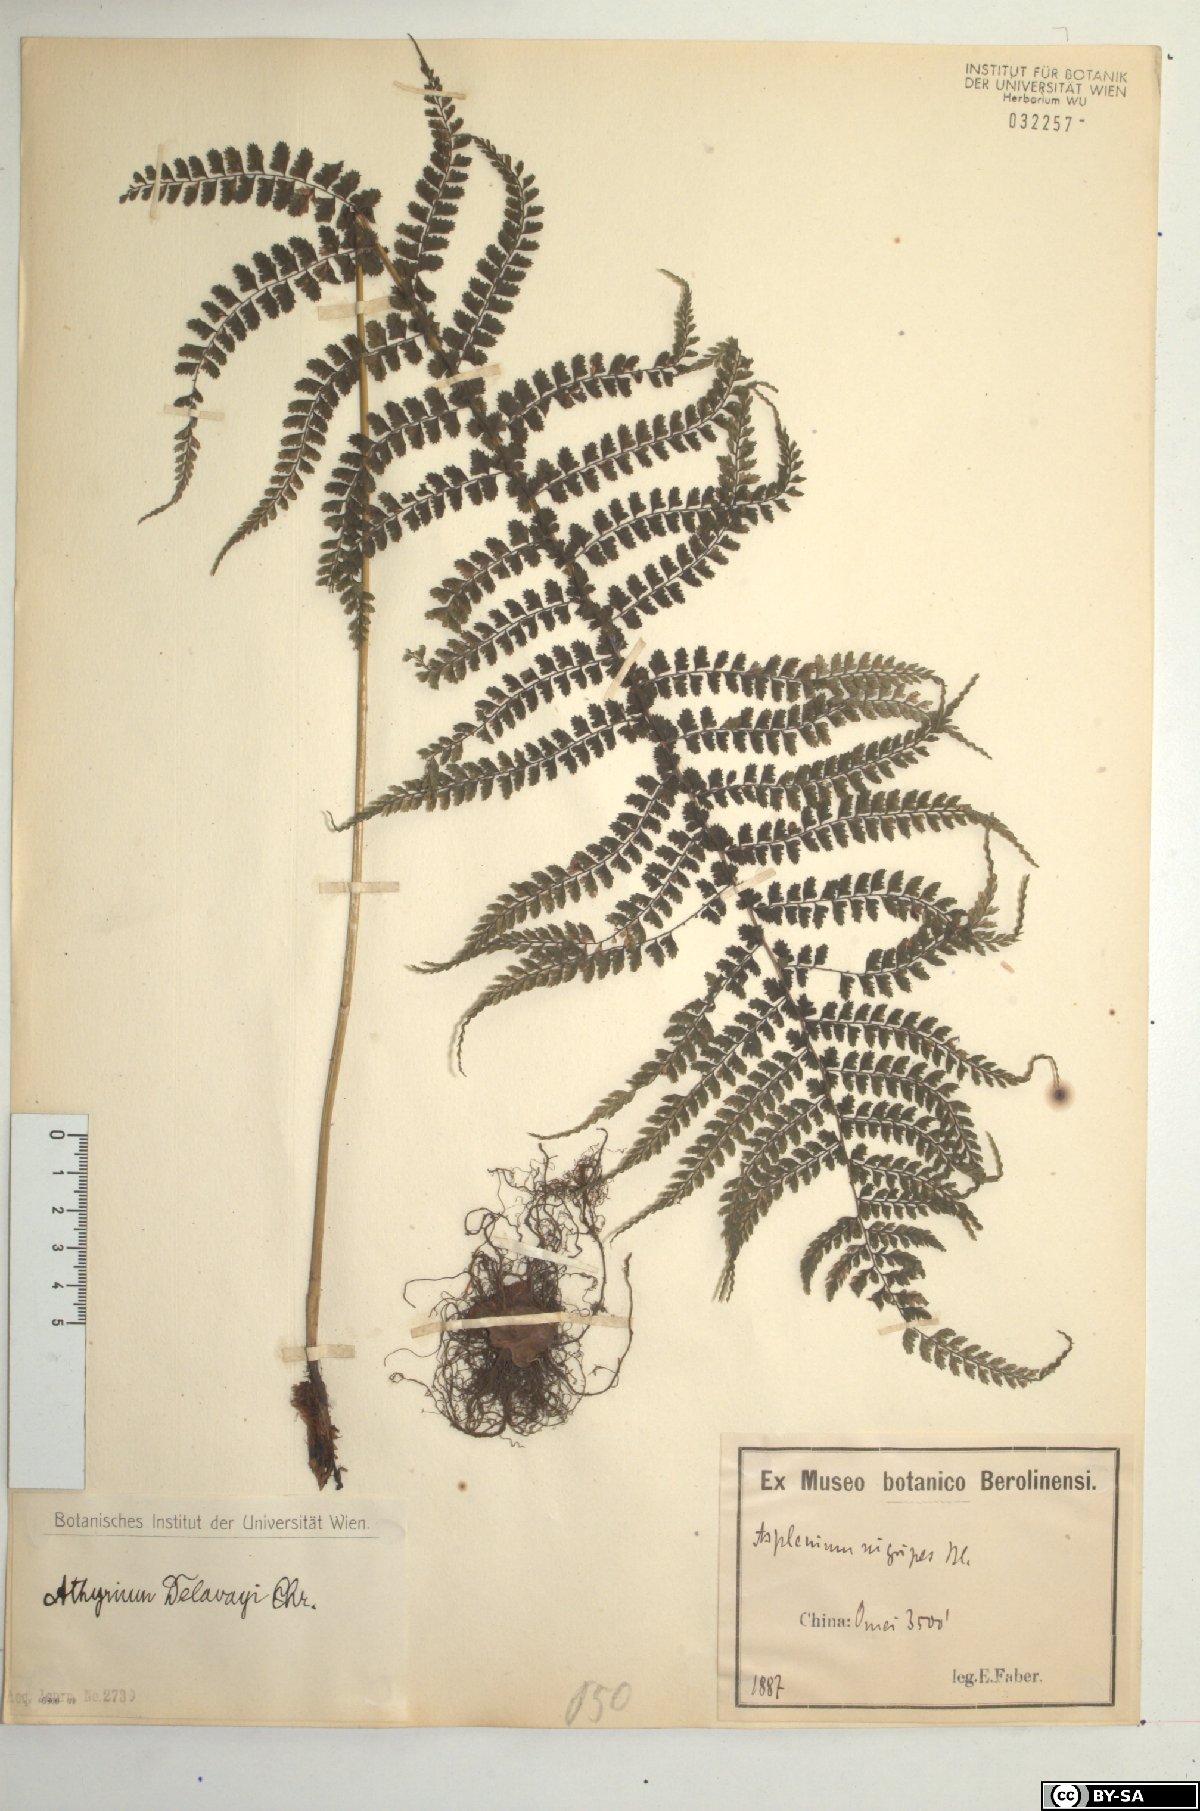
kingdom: Plantae
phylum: Tracheophyta
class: Polypodiopsida
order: Polypodiales
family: Athyriaceae
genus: Athyrium
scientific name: Athyrium delavayi
